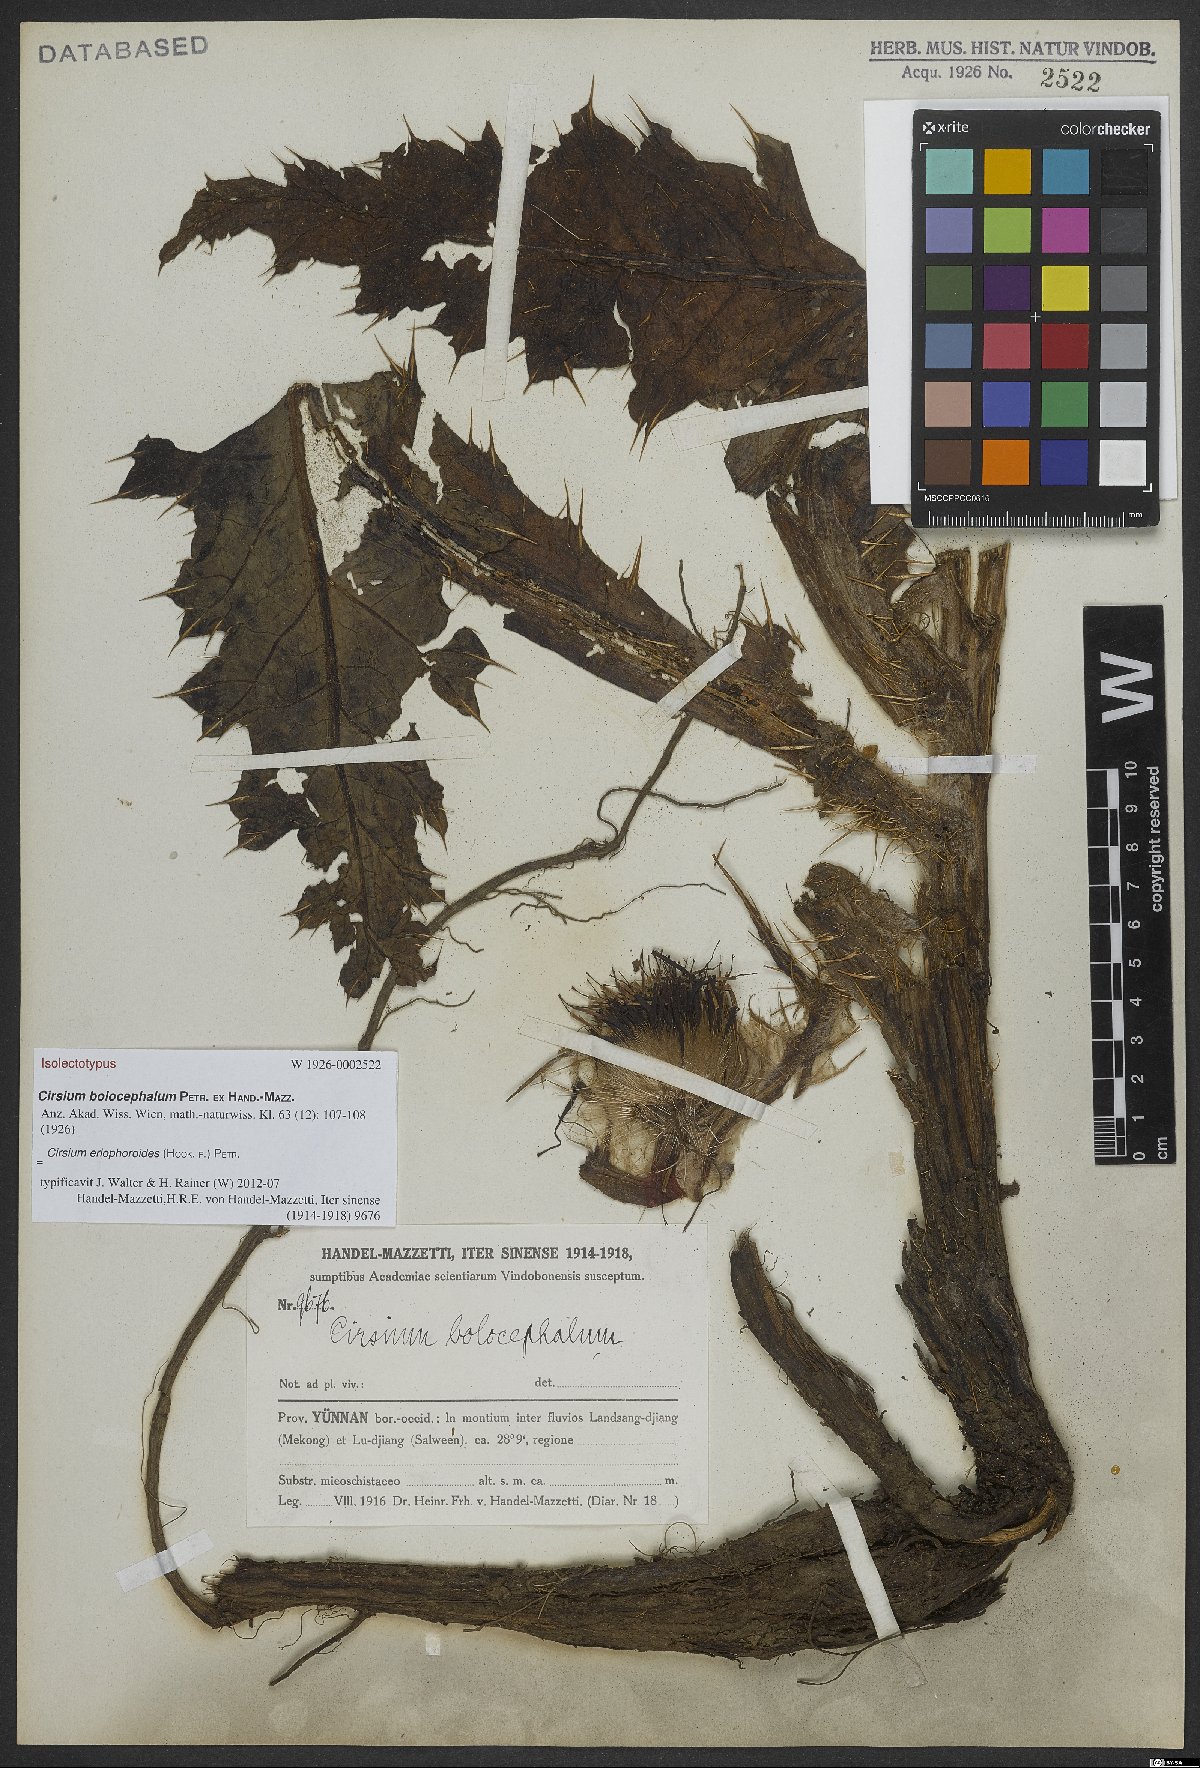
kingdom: Plantae
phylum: Tracheophyta
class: Magnoliopsida
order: Asterales
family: Asteraceae
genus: Cirsium
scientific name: Cirsium eriophoroides
